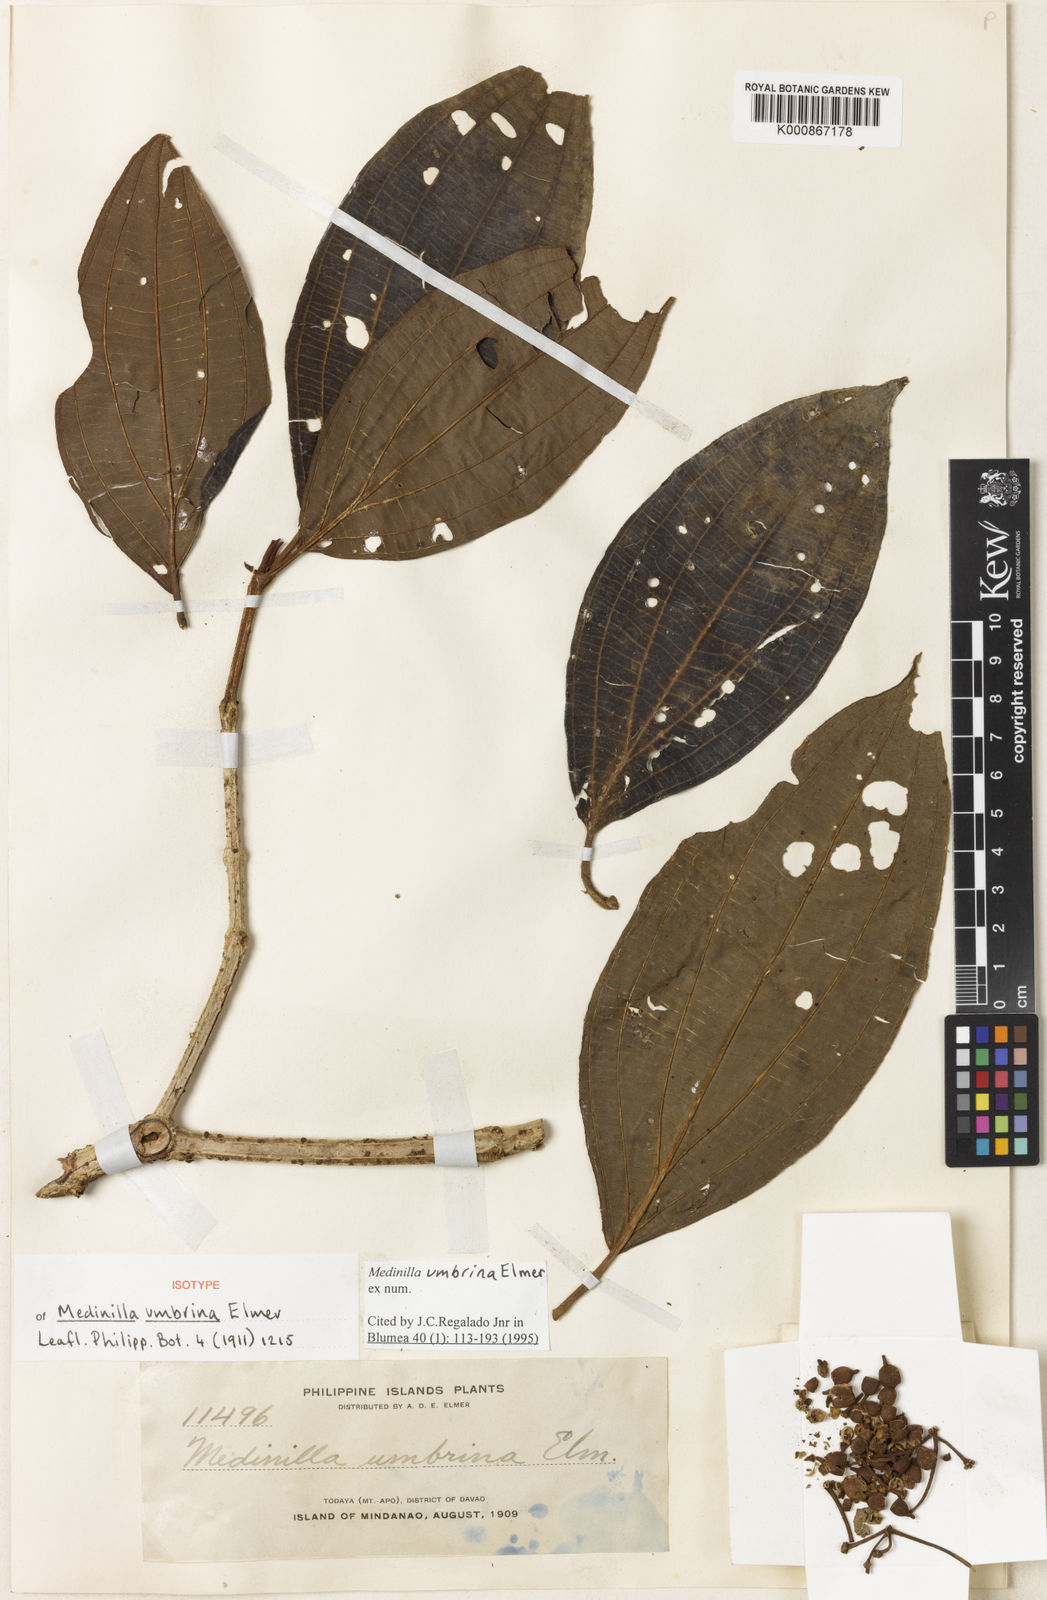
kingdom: Plantae
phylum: Tracheophyta
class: Magnoliopsida
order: Myrtales
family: Melastomataceae
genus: Medinilla
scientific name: Medinilla umbrina
